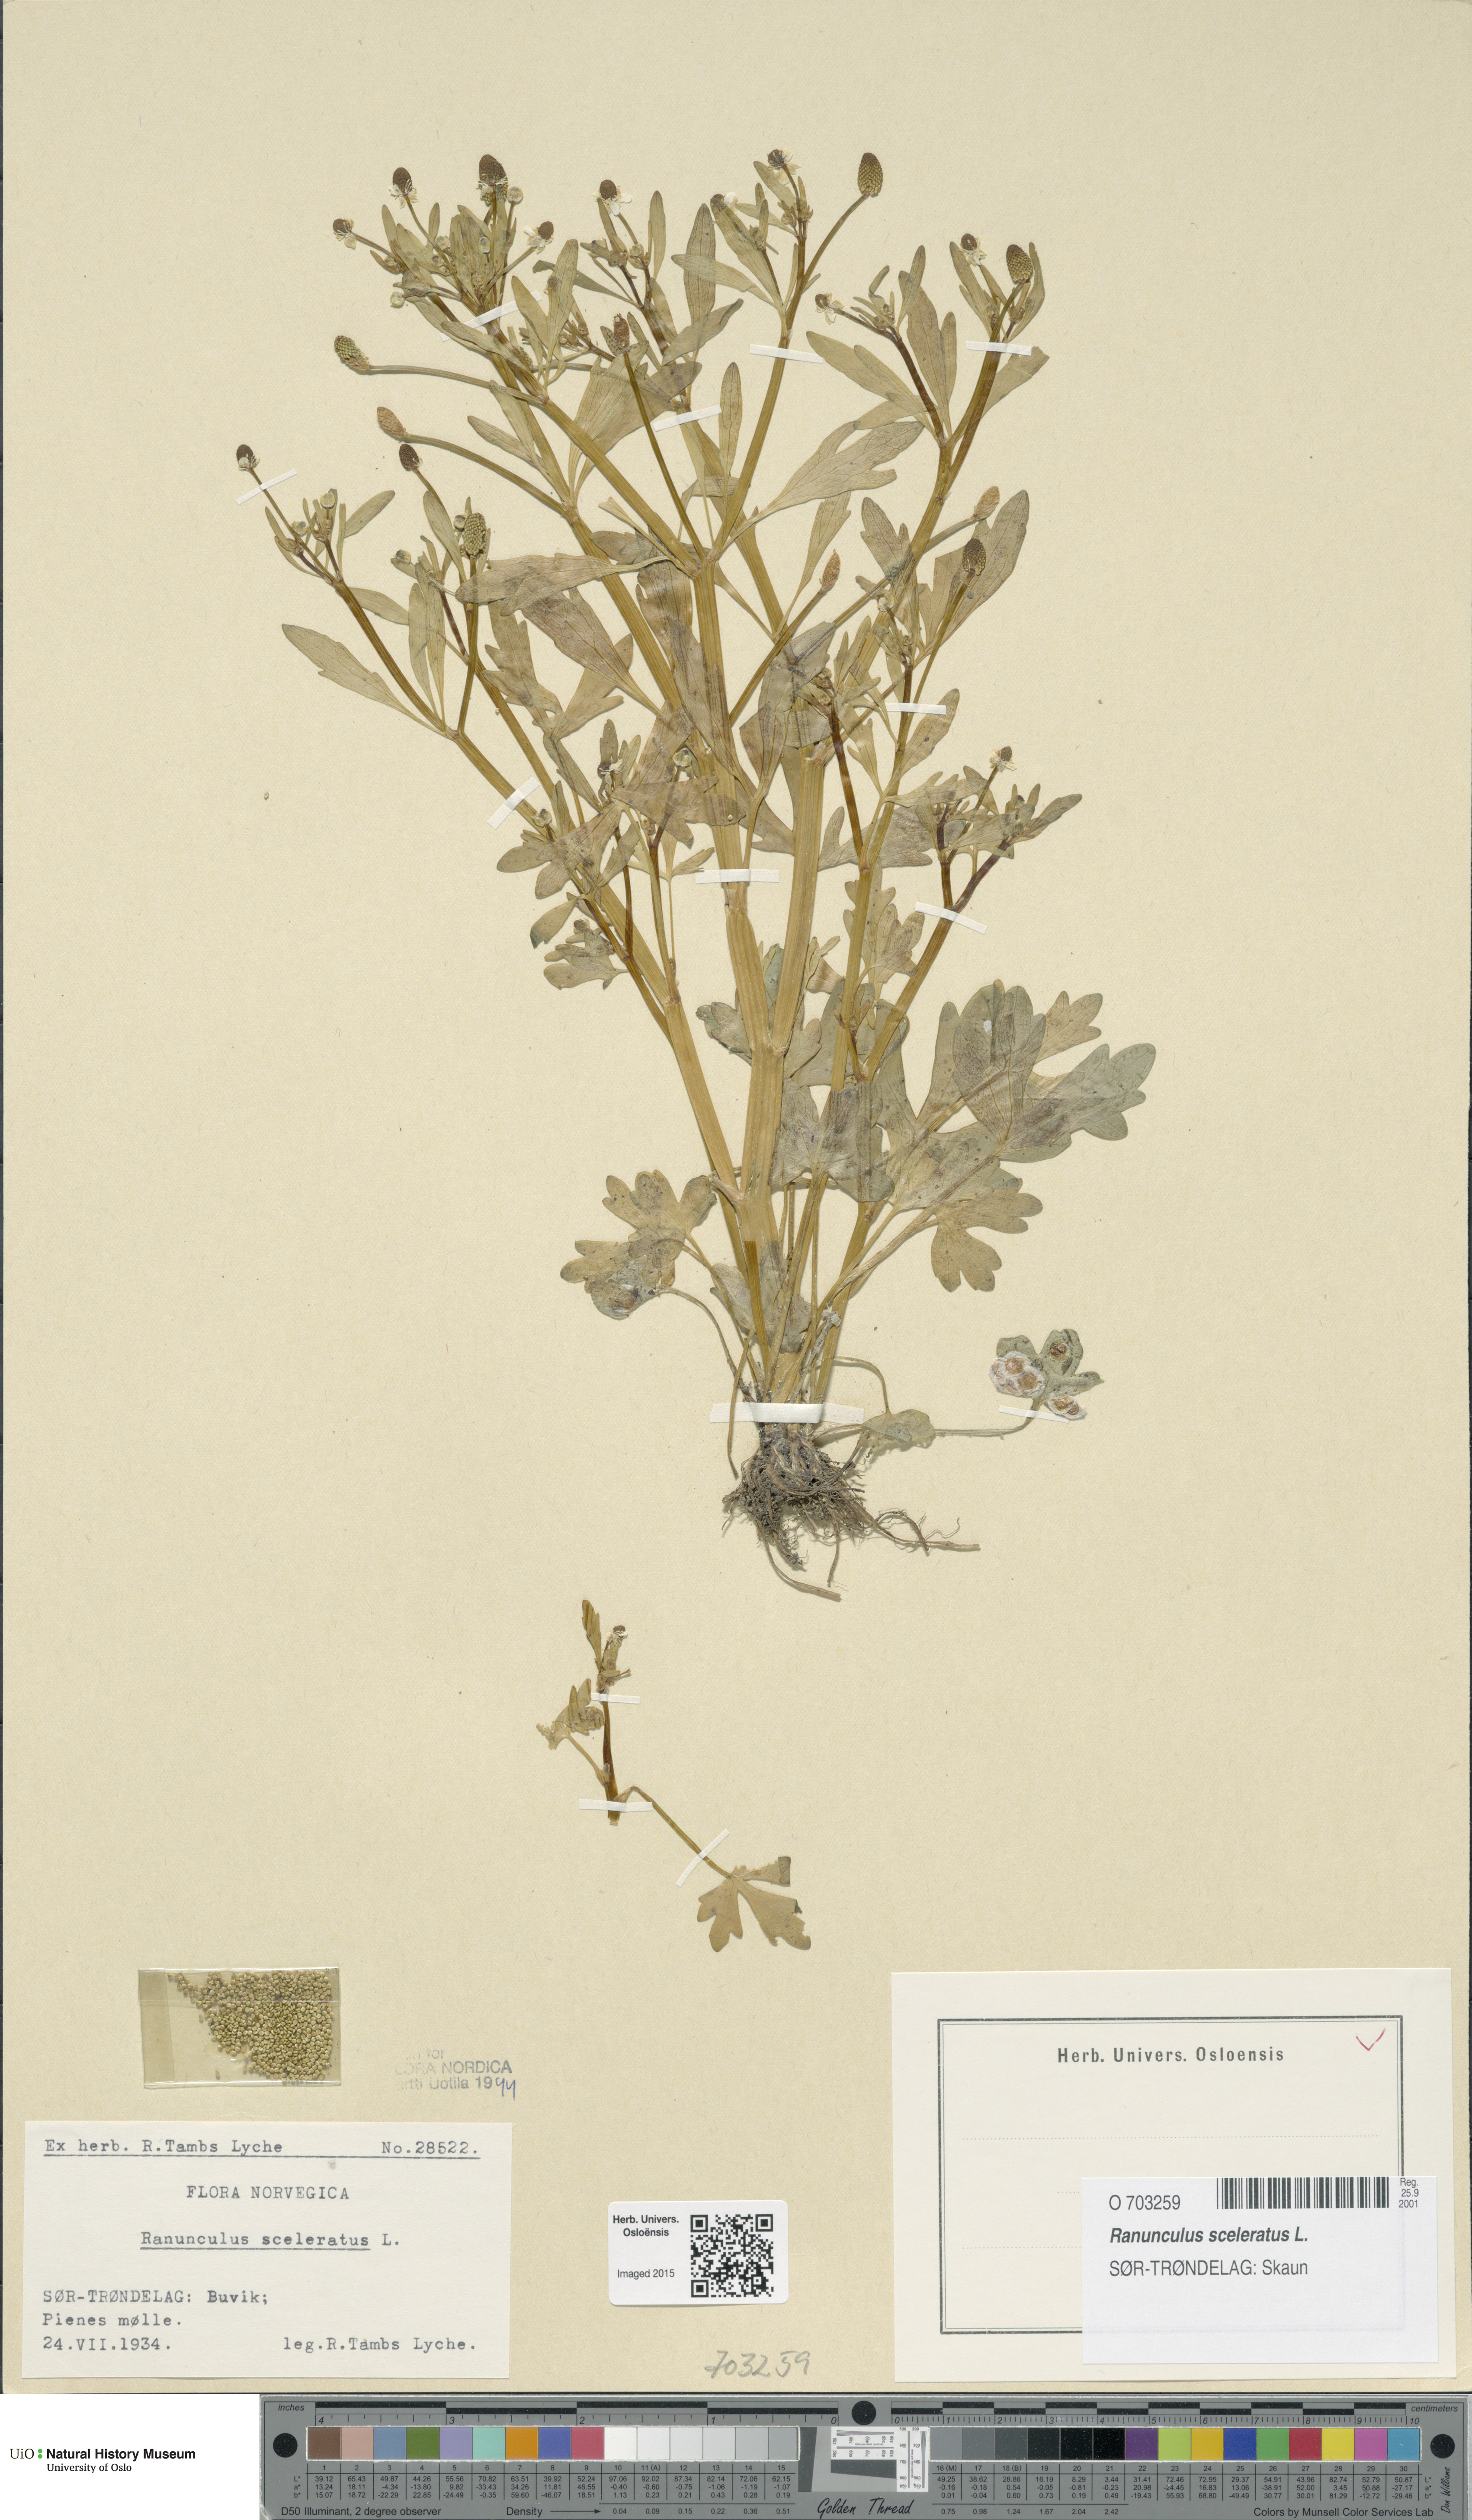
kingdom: Plantae
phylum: Tracheophyta
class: Magnoliopsida
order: Ranunculales
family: Ranunculaceae
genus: Ranunculus
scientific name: Ranunculus sceleratus
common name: Celery-leaved buttercup
